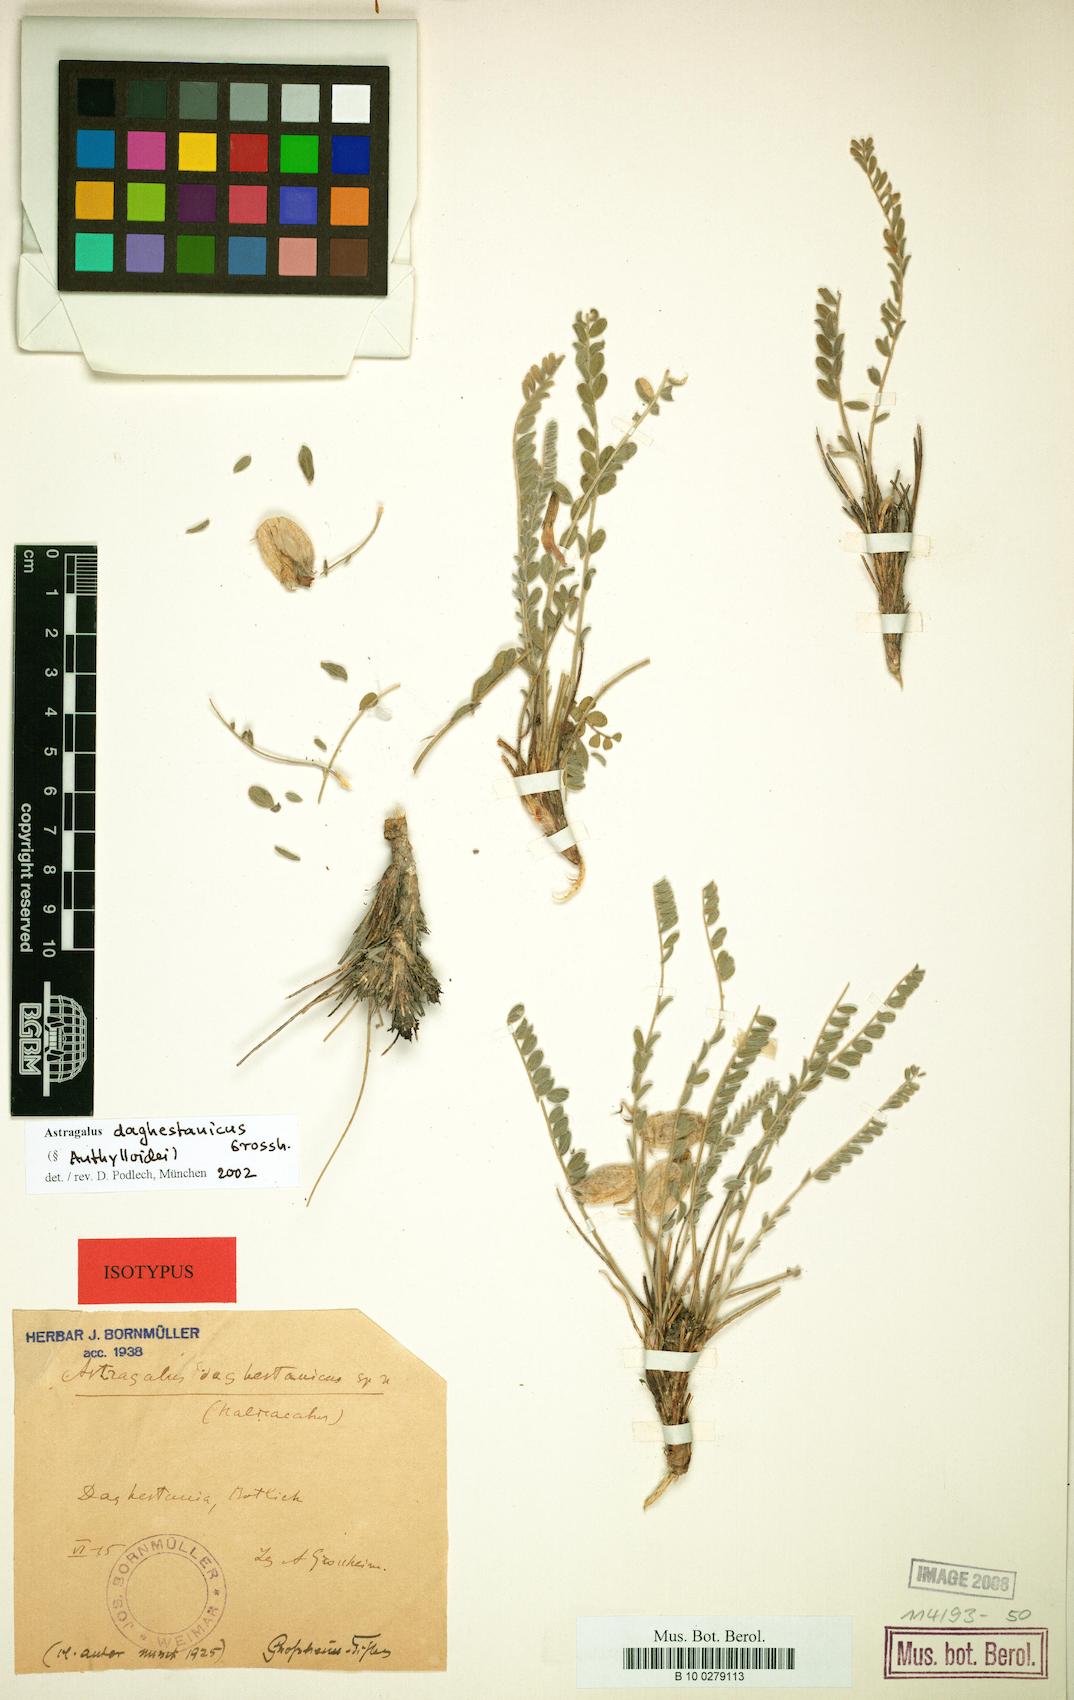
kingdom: Plantae
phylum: Tracheophyta
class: Magnoliopsida
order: Fabales
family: Fabaceae
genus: Astragalus
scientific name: Astragalus daghestanicus
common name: Daghestanian milk vetch
